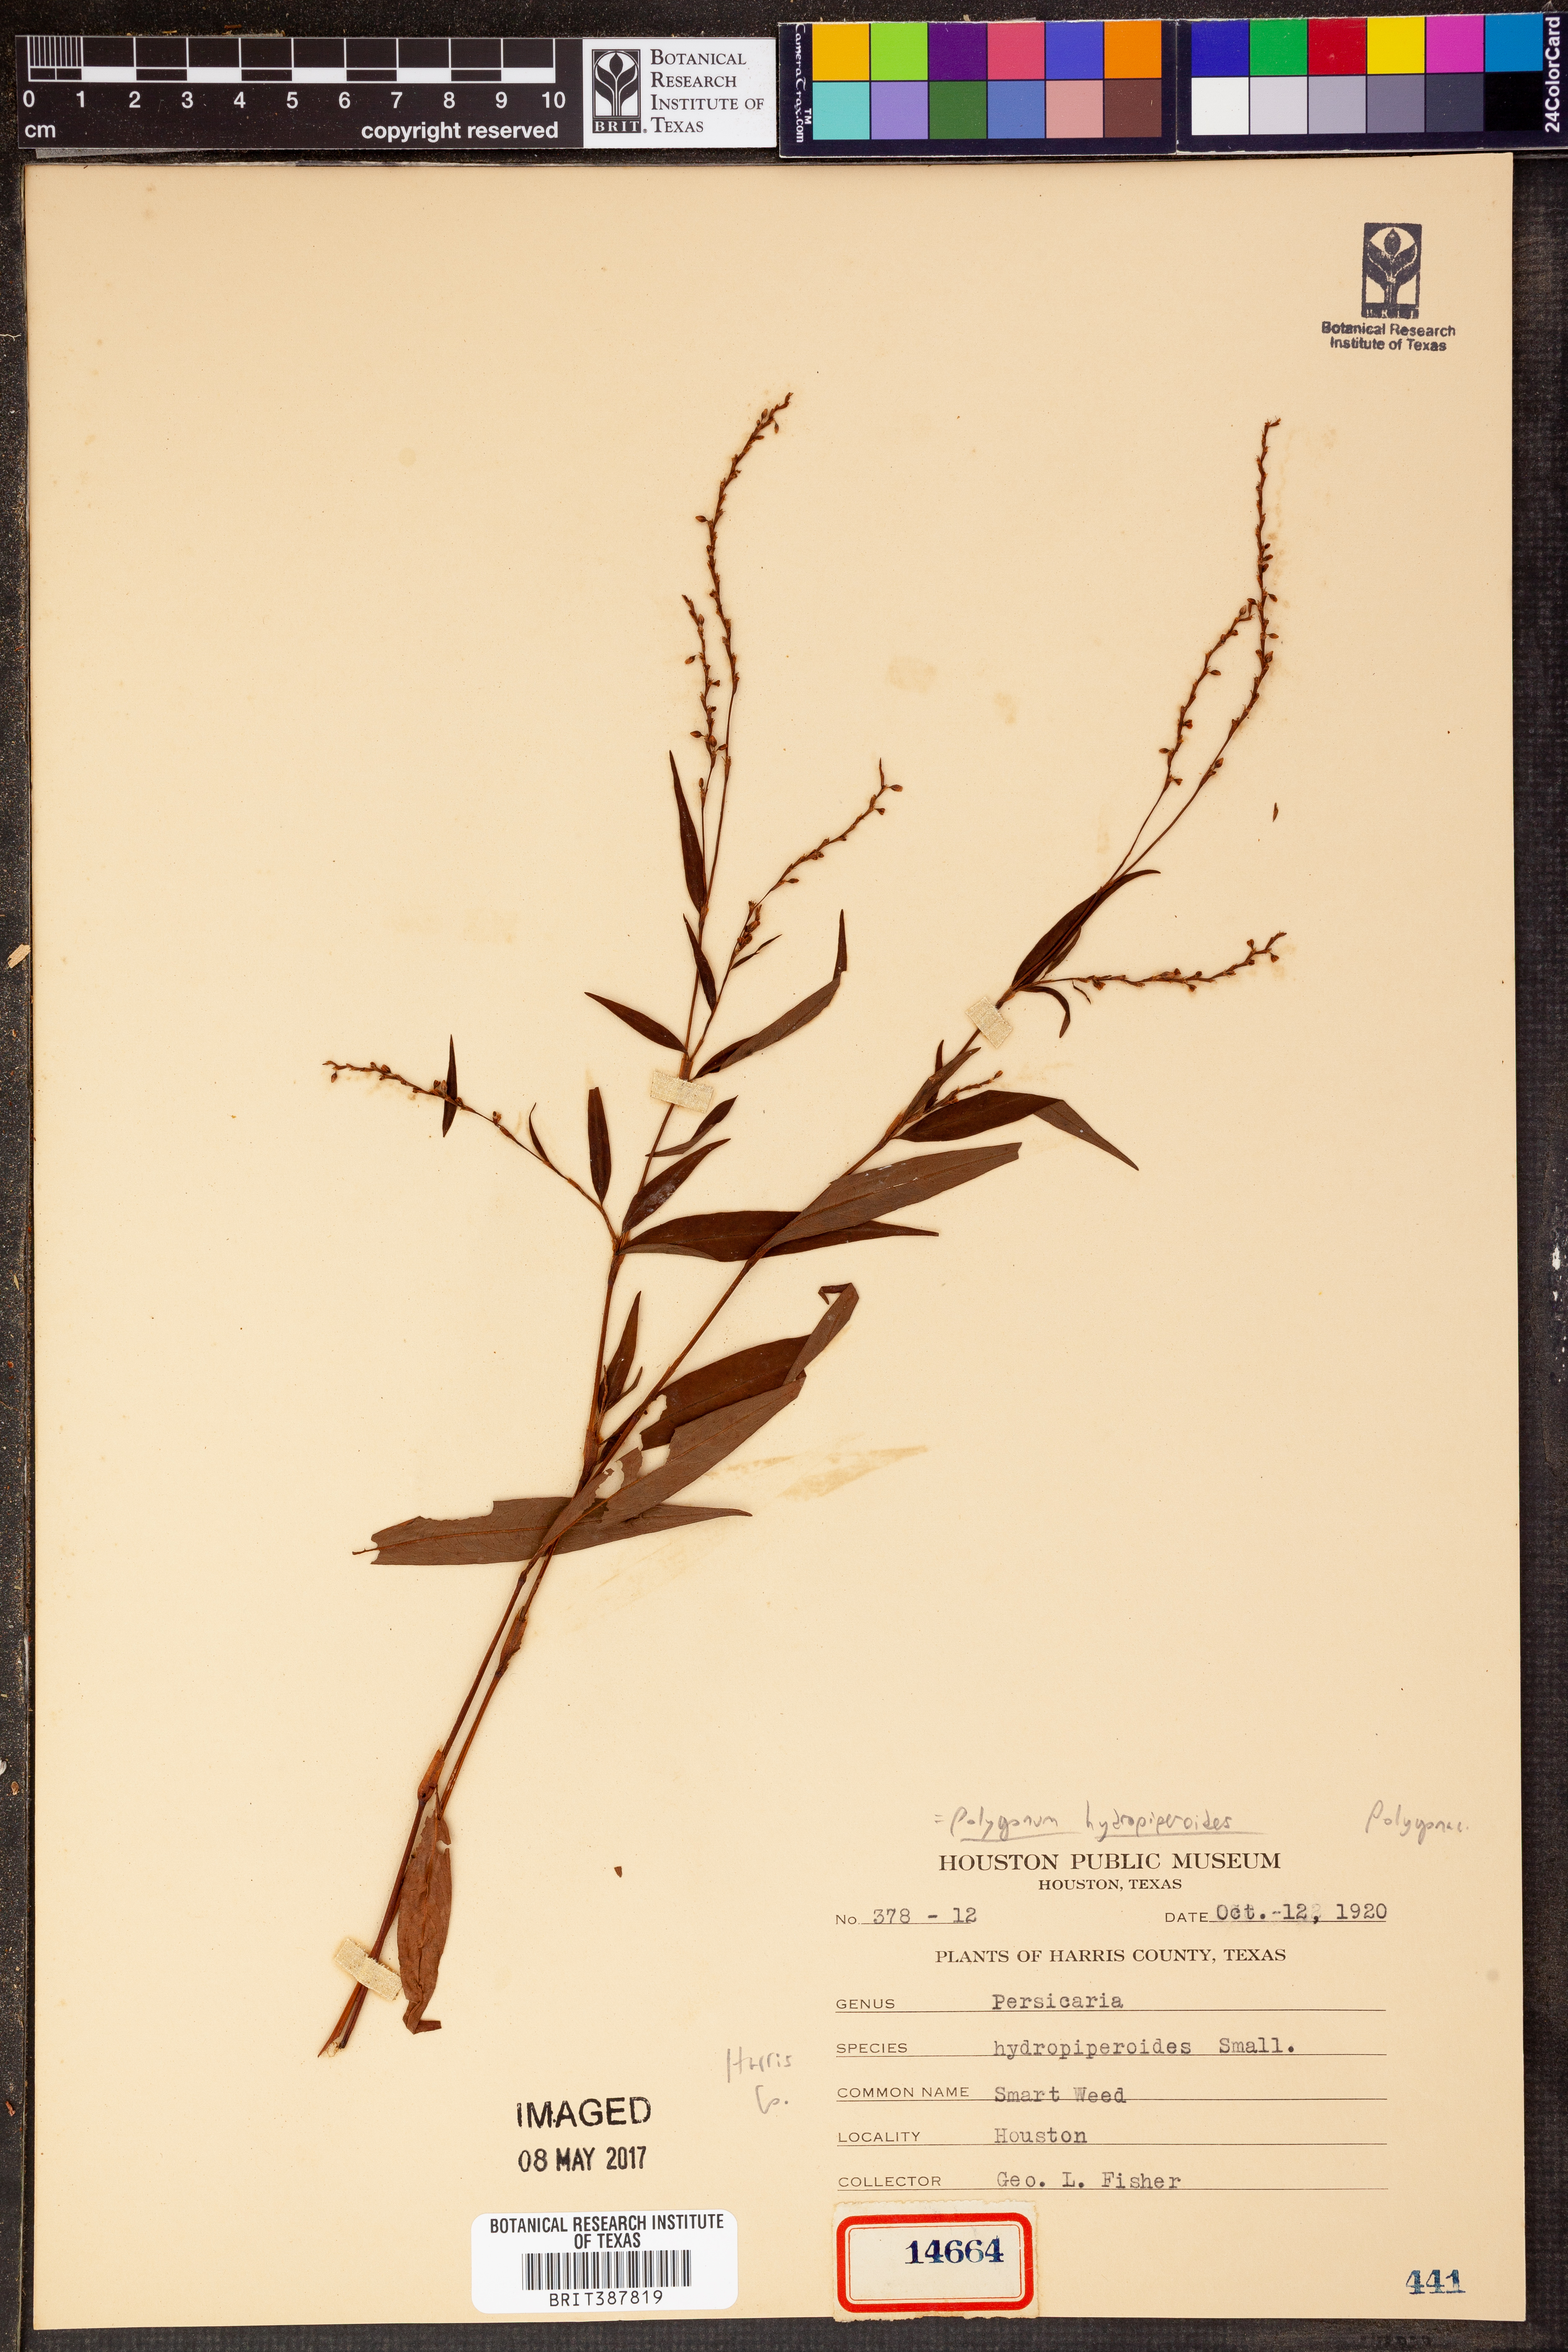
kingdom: Plantae
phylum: Tracheophyta
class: Magnoliopsida
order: Caryophyllales
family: Polygonaceae
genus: Persicaria
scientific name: Persicaria hydropiperoides
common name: Swamp smartweed
